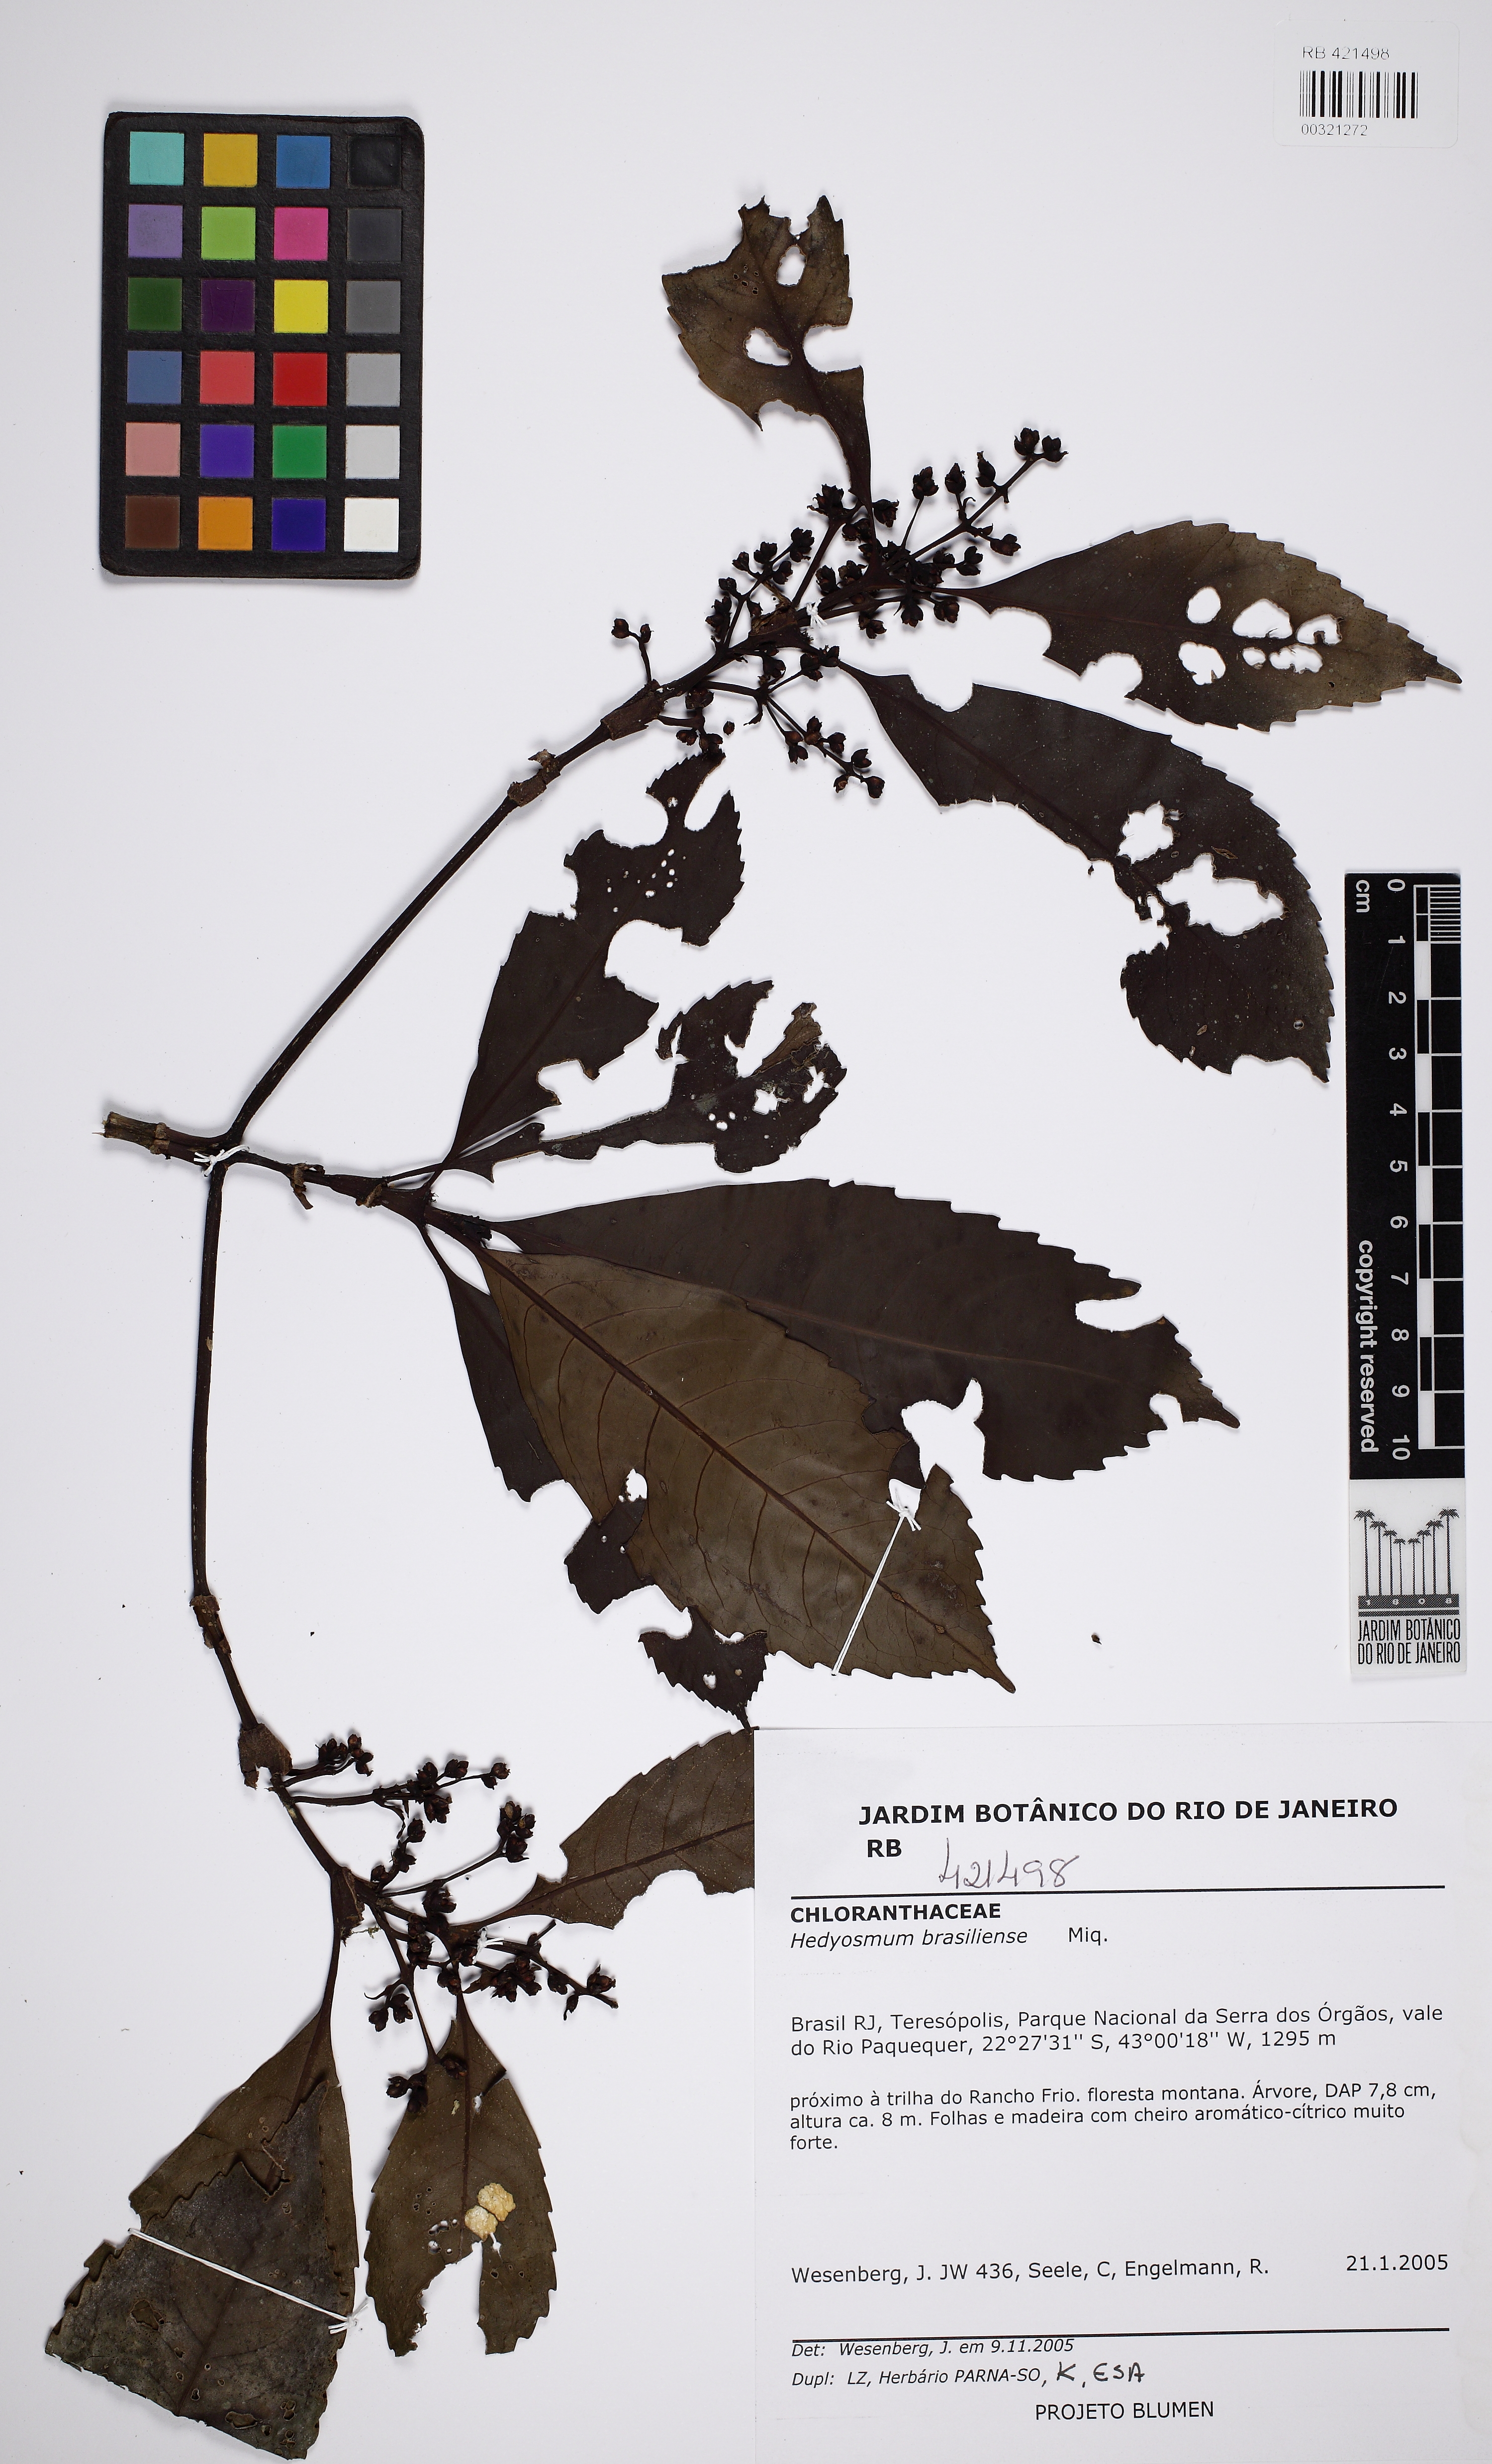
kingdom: Plantae
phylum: Tracheophyta
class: Magnoliopsida
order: Chloranthales
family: Chloranthaceae
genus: Hedyosmum
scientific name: Hedyosmum brasiliense
